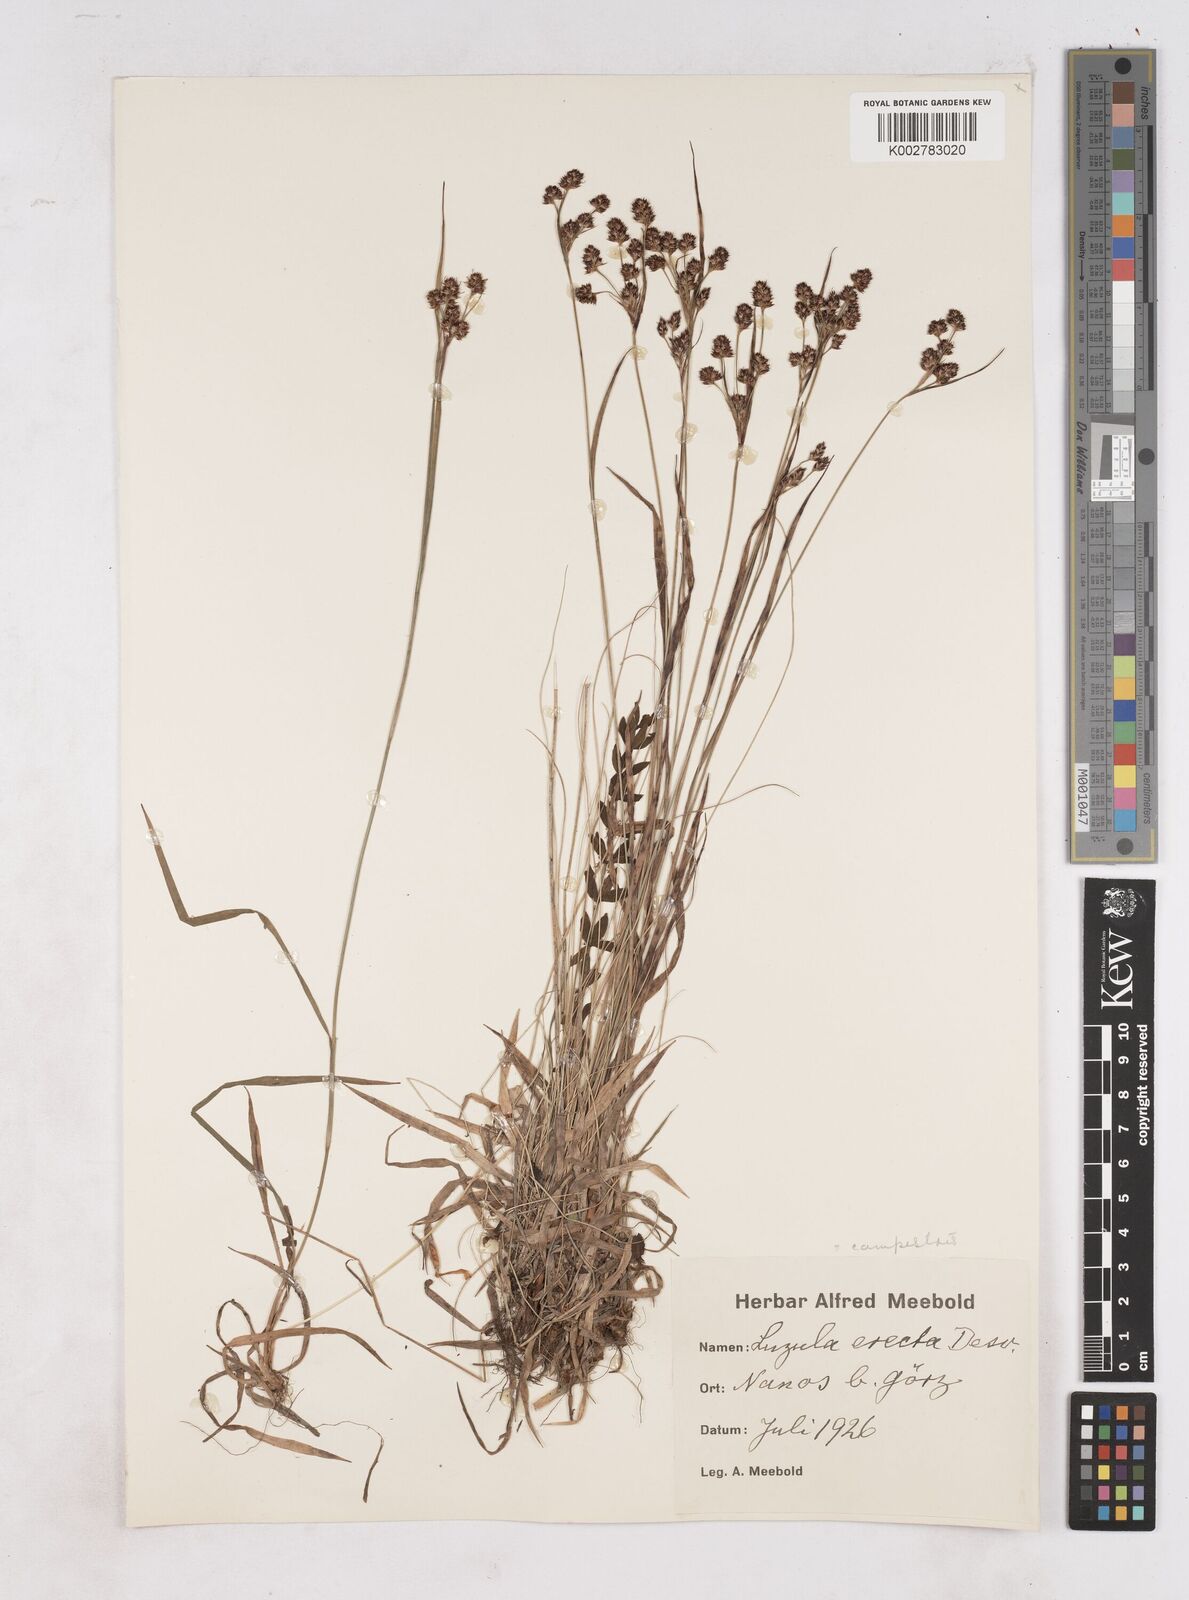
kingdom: Plantae
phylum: Tracheophyta
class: Liliopsida
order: Poales
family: Juncaceae
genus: Luzula
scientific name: Luzula campestris
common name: Field wood-rush
